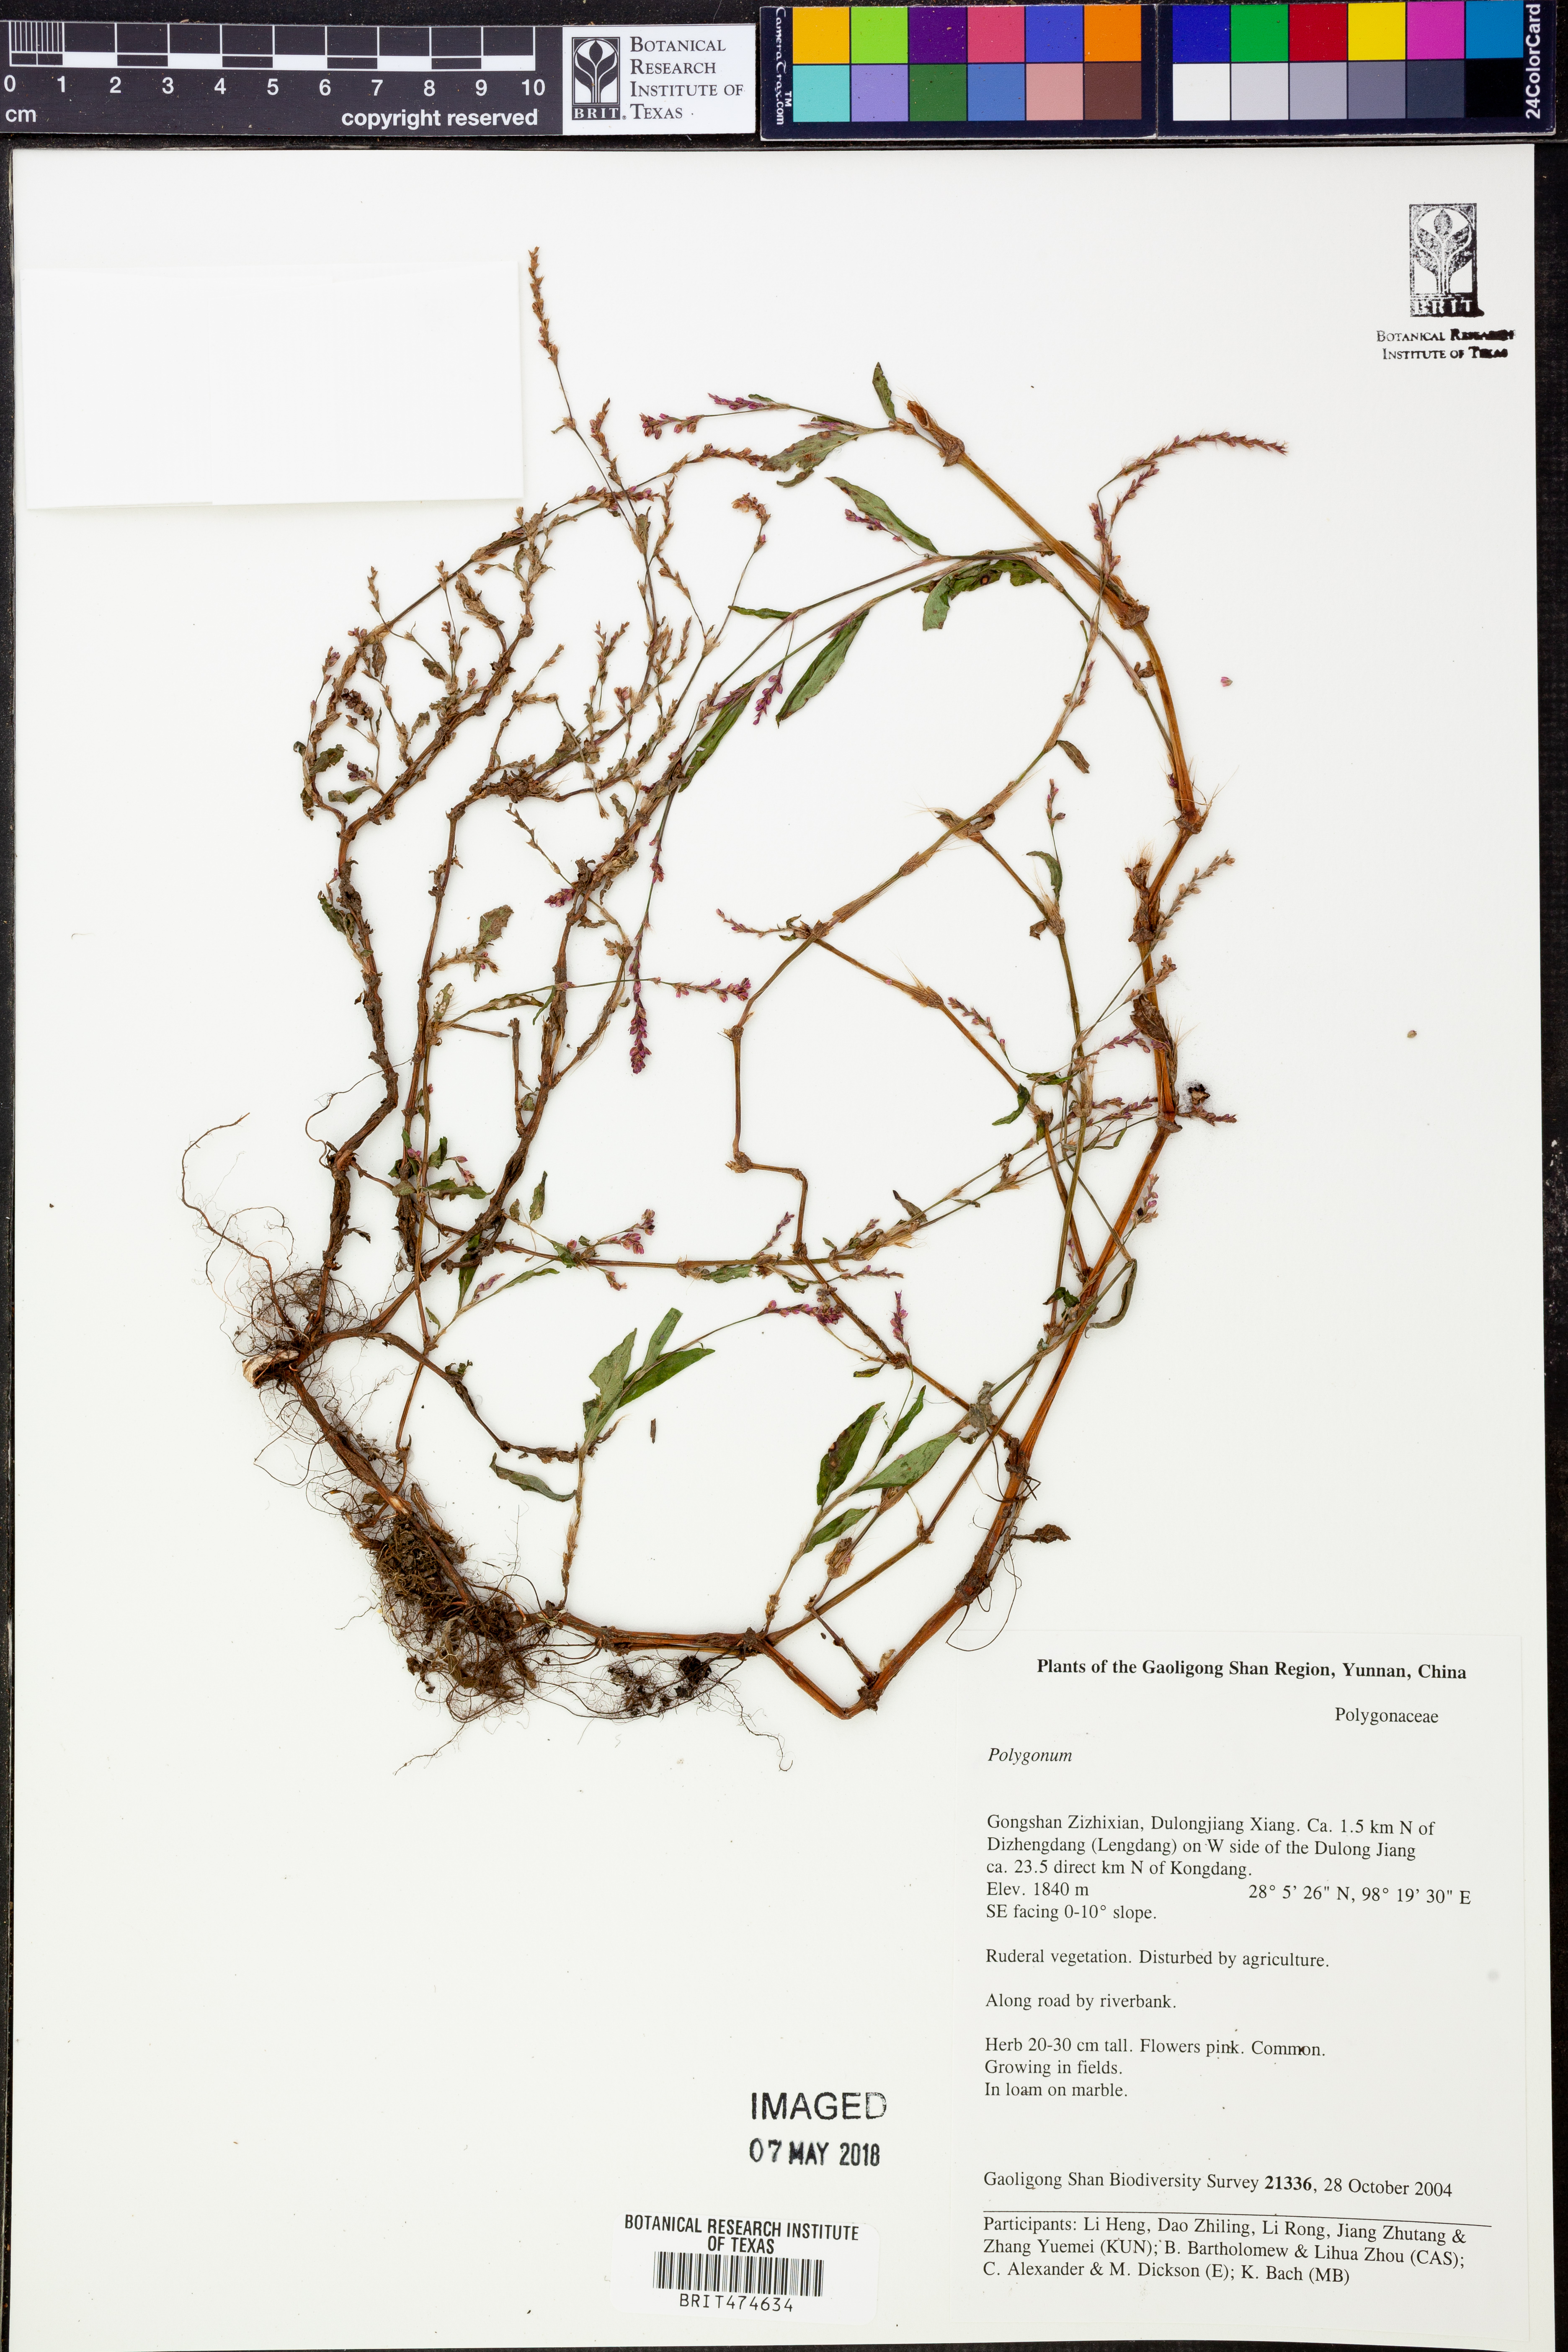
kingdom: Plantae
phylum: Tracheophyta
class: Magnoliopsida
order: Caryophyllales
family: Polygonaceae
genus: Polygonum
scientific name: Polygonum
